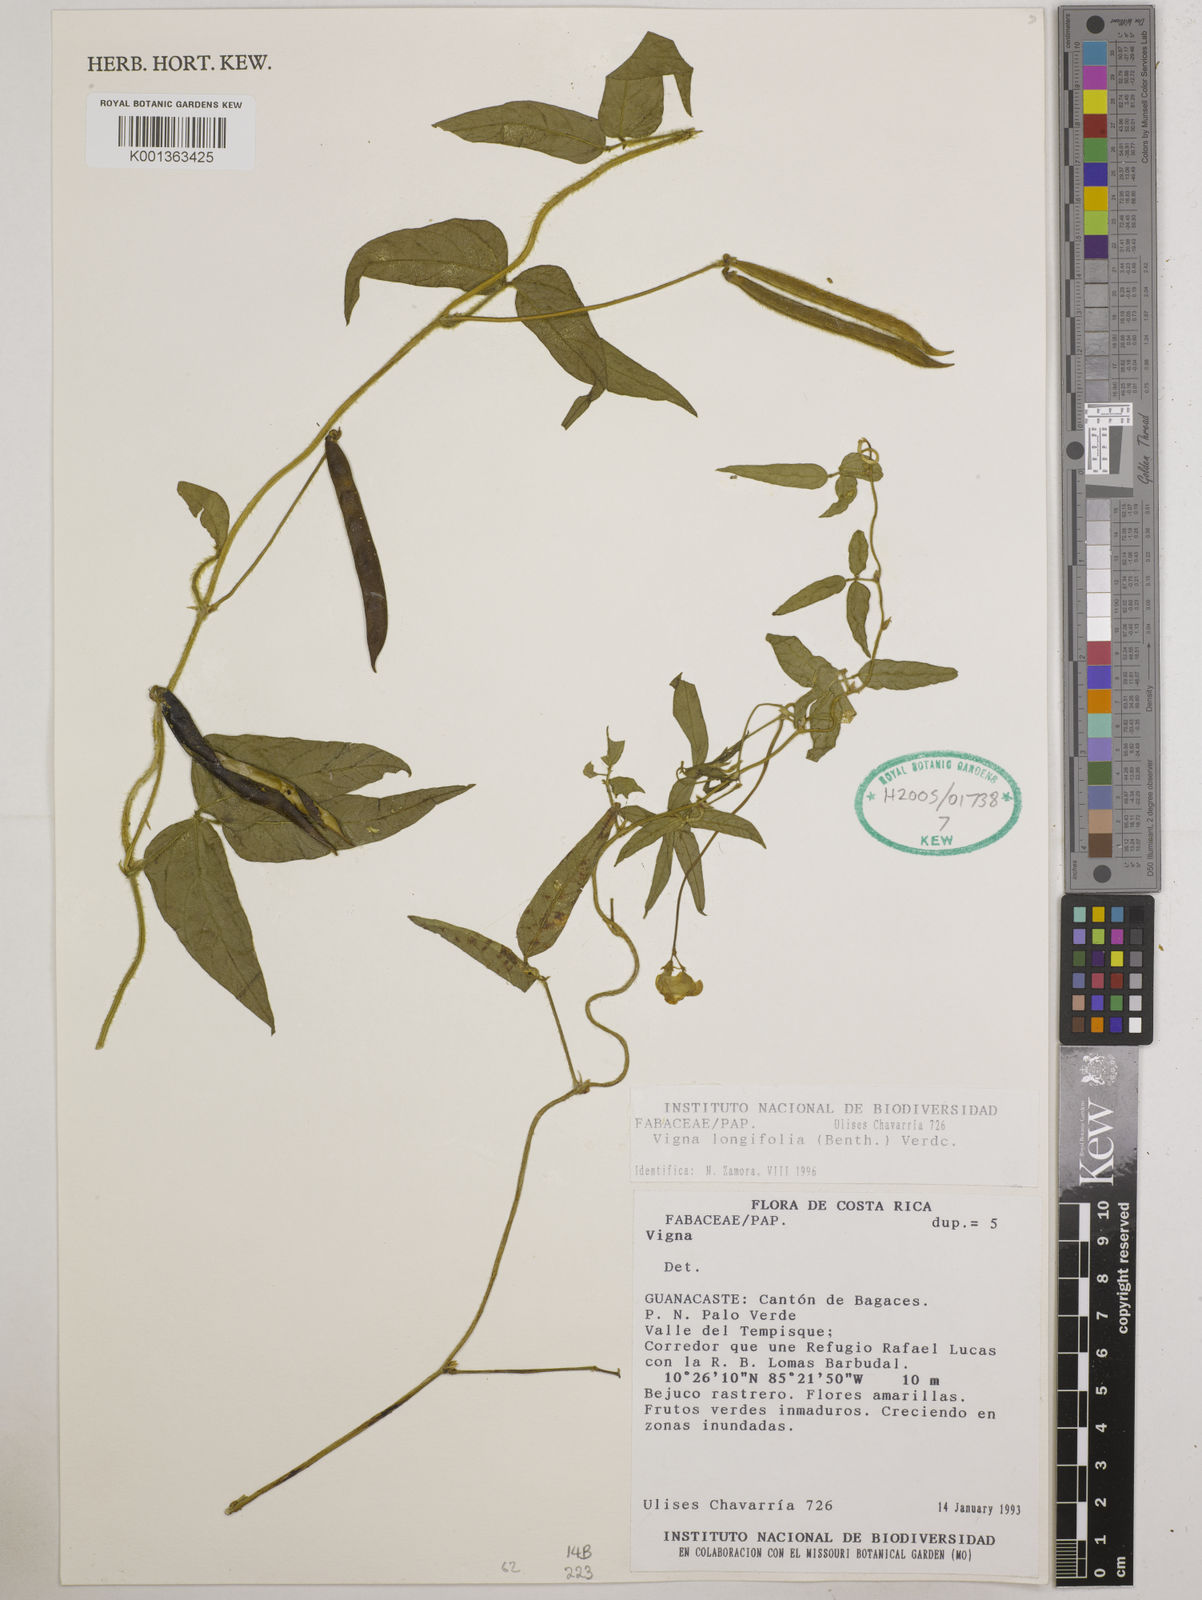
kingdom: Plantae
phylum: Tracheophyta
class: Magnoliopsida
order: Fabales
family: Fabaceae
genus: Vigna
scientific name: Vigna luteola
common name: Hairypod cowpea
